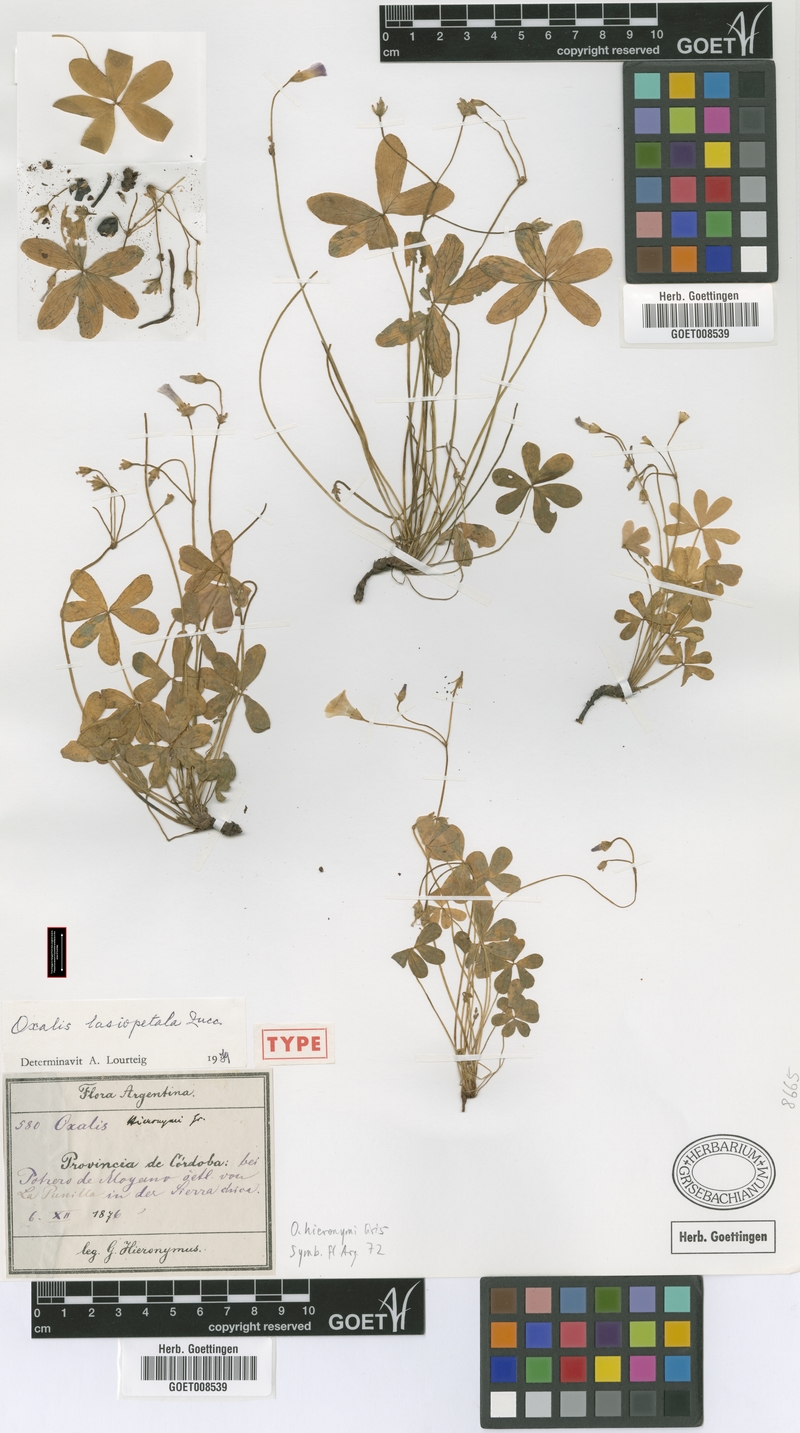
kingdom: Plantae
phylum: Tracheophyta
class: Magnoliopsida
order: Oxalidales
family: Oxalidaceae
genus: Oxalis
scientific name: Oxalis lasiopetala
